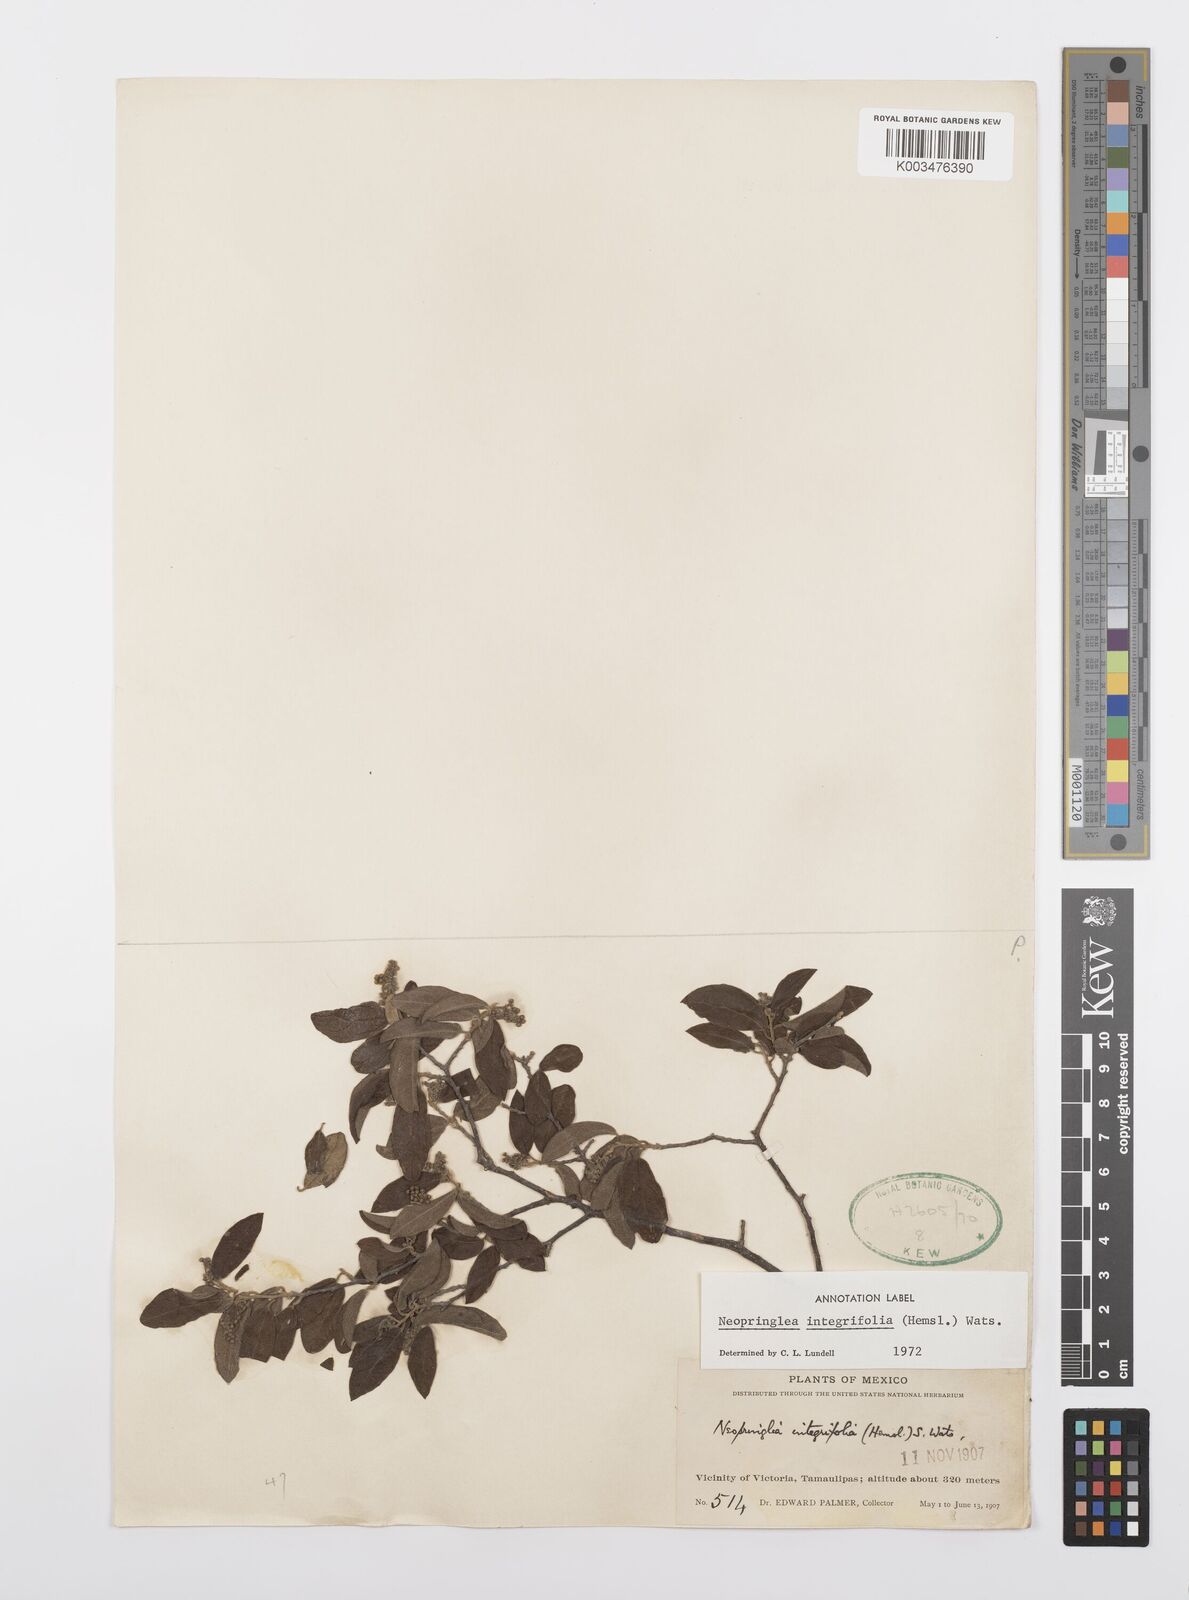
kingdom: Plantae
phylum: Tracheophyta
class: Magnoliopsida
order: Malpighiales
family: Salicaceae
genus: Neopringlea
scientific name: Neopringlea integrifolia
